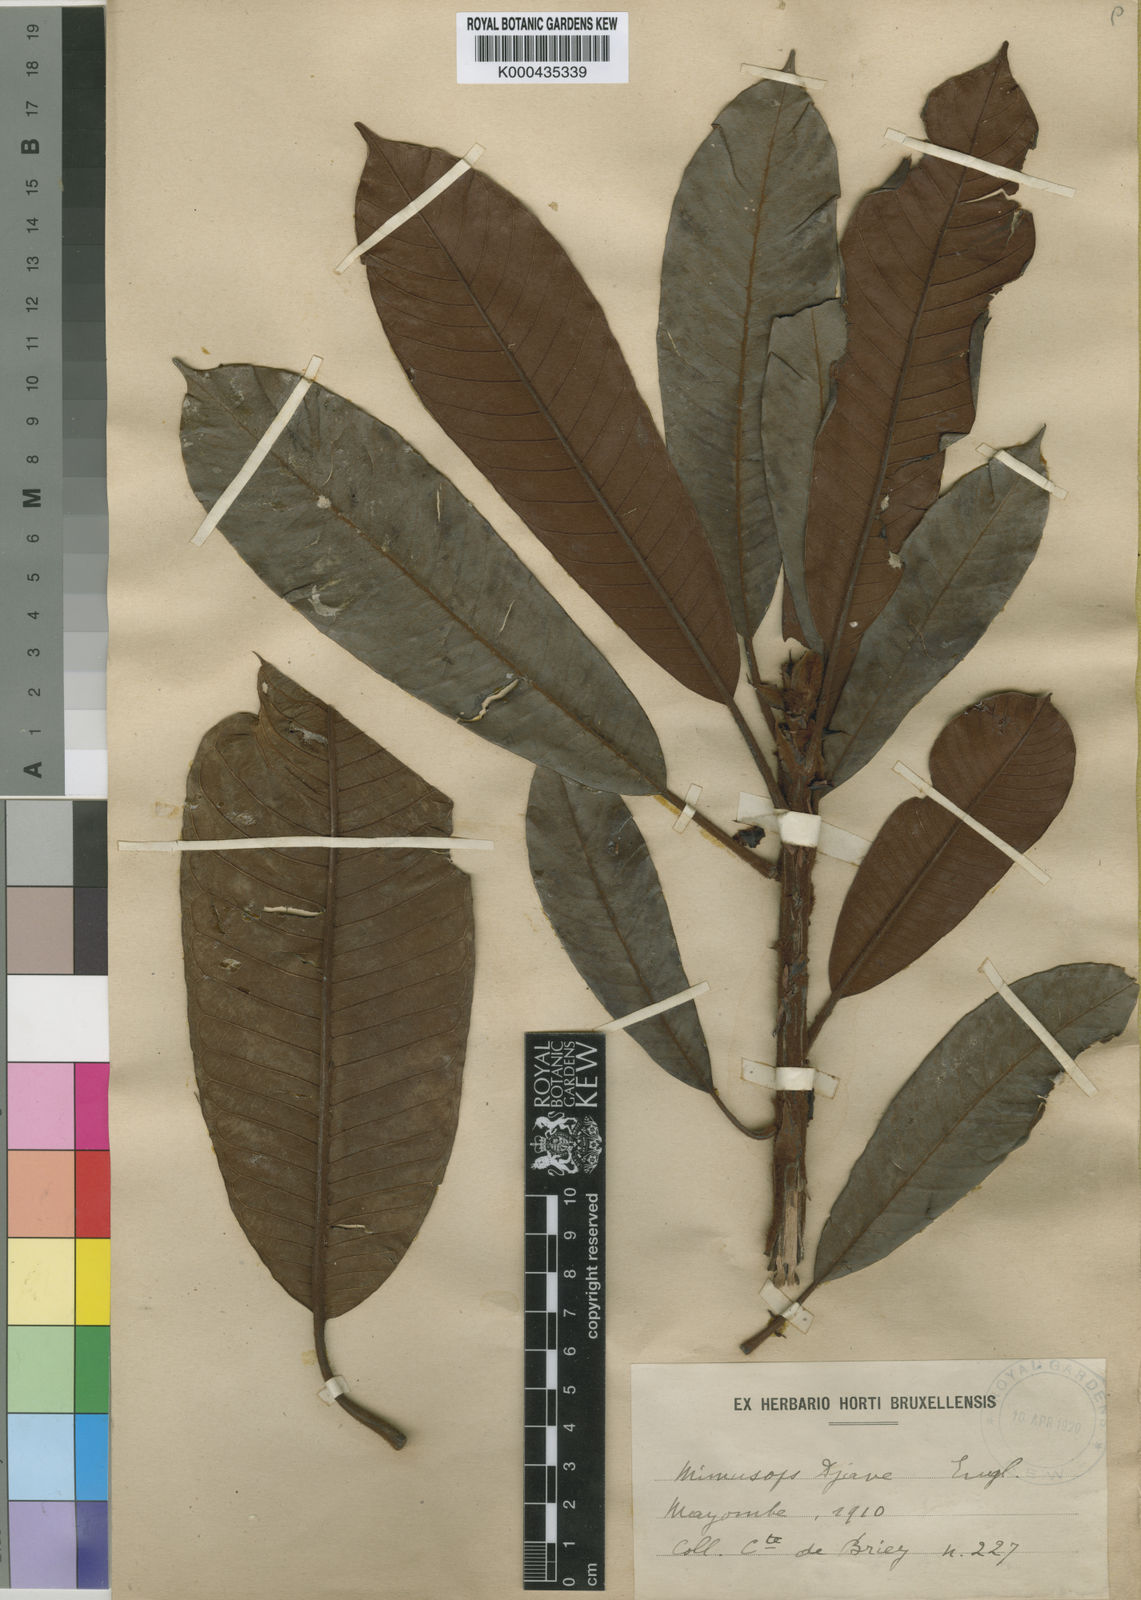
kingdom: Plantae
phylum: Tracheophyta
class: Magnoliopsida
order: Ericales
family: Sapotaceae
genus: Baillonella
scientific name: Baillonella toxisperma
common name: African pearwood
